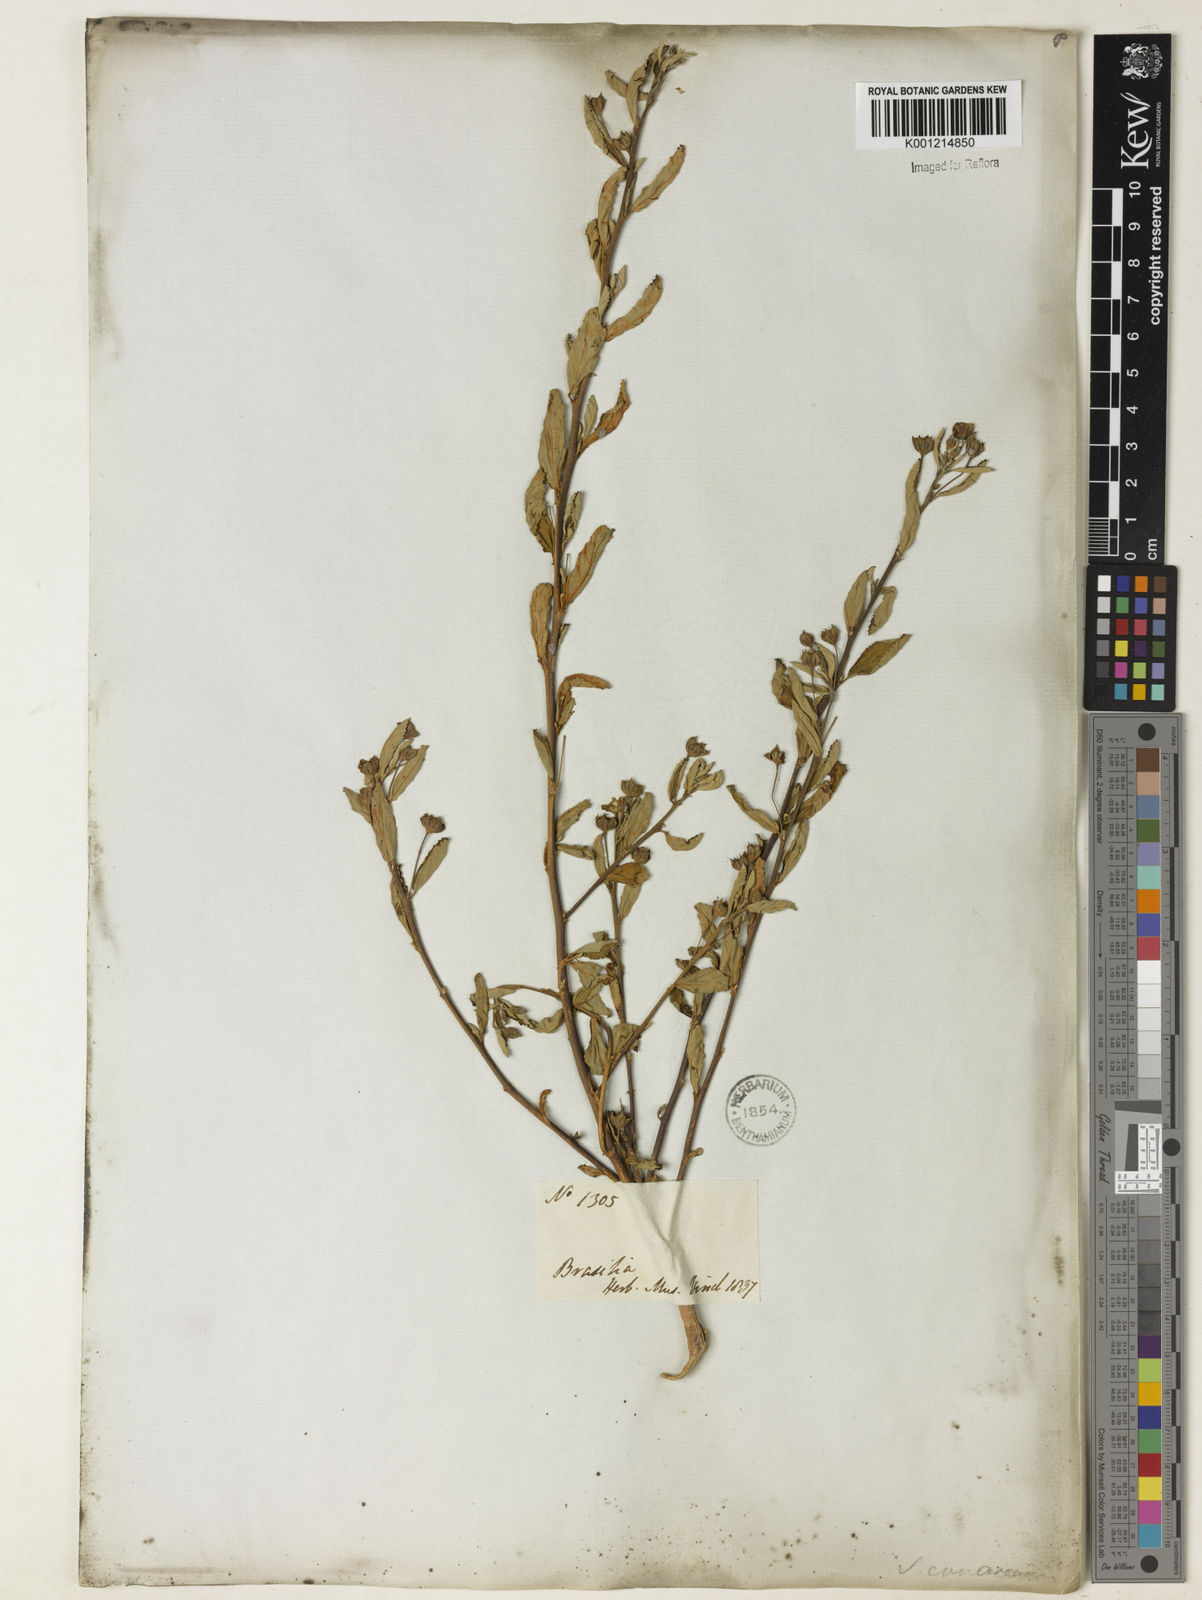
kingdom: Plantae
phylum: Tracheophyta
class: Magnoliopsida
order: Malvales
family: Malvaceae
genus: Sida
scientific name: Sida rhombifolia
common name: Queensland-hemp
